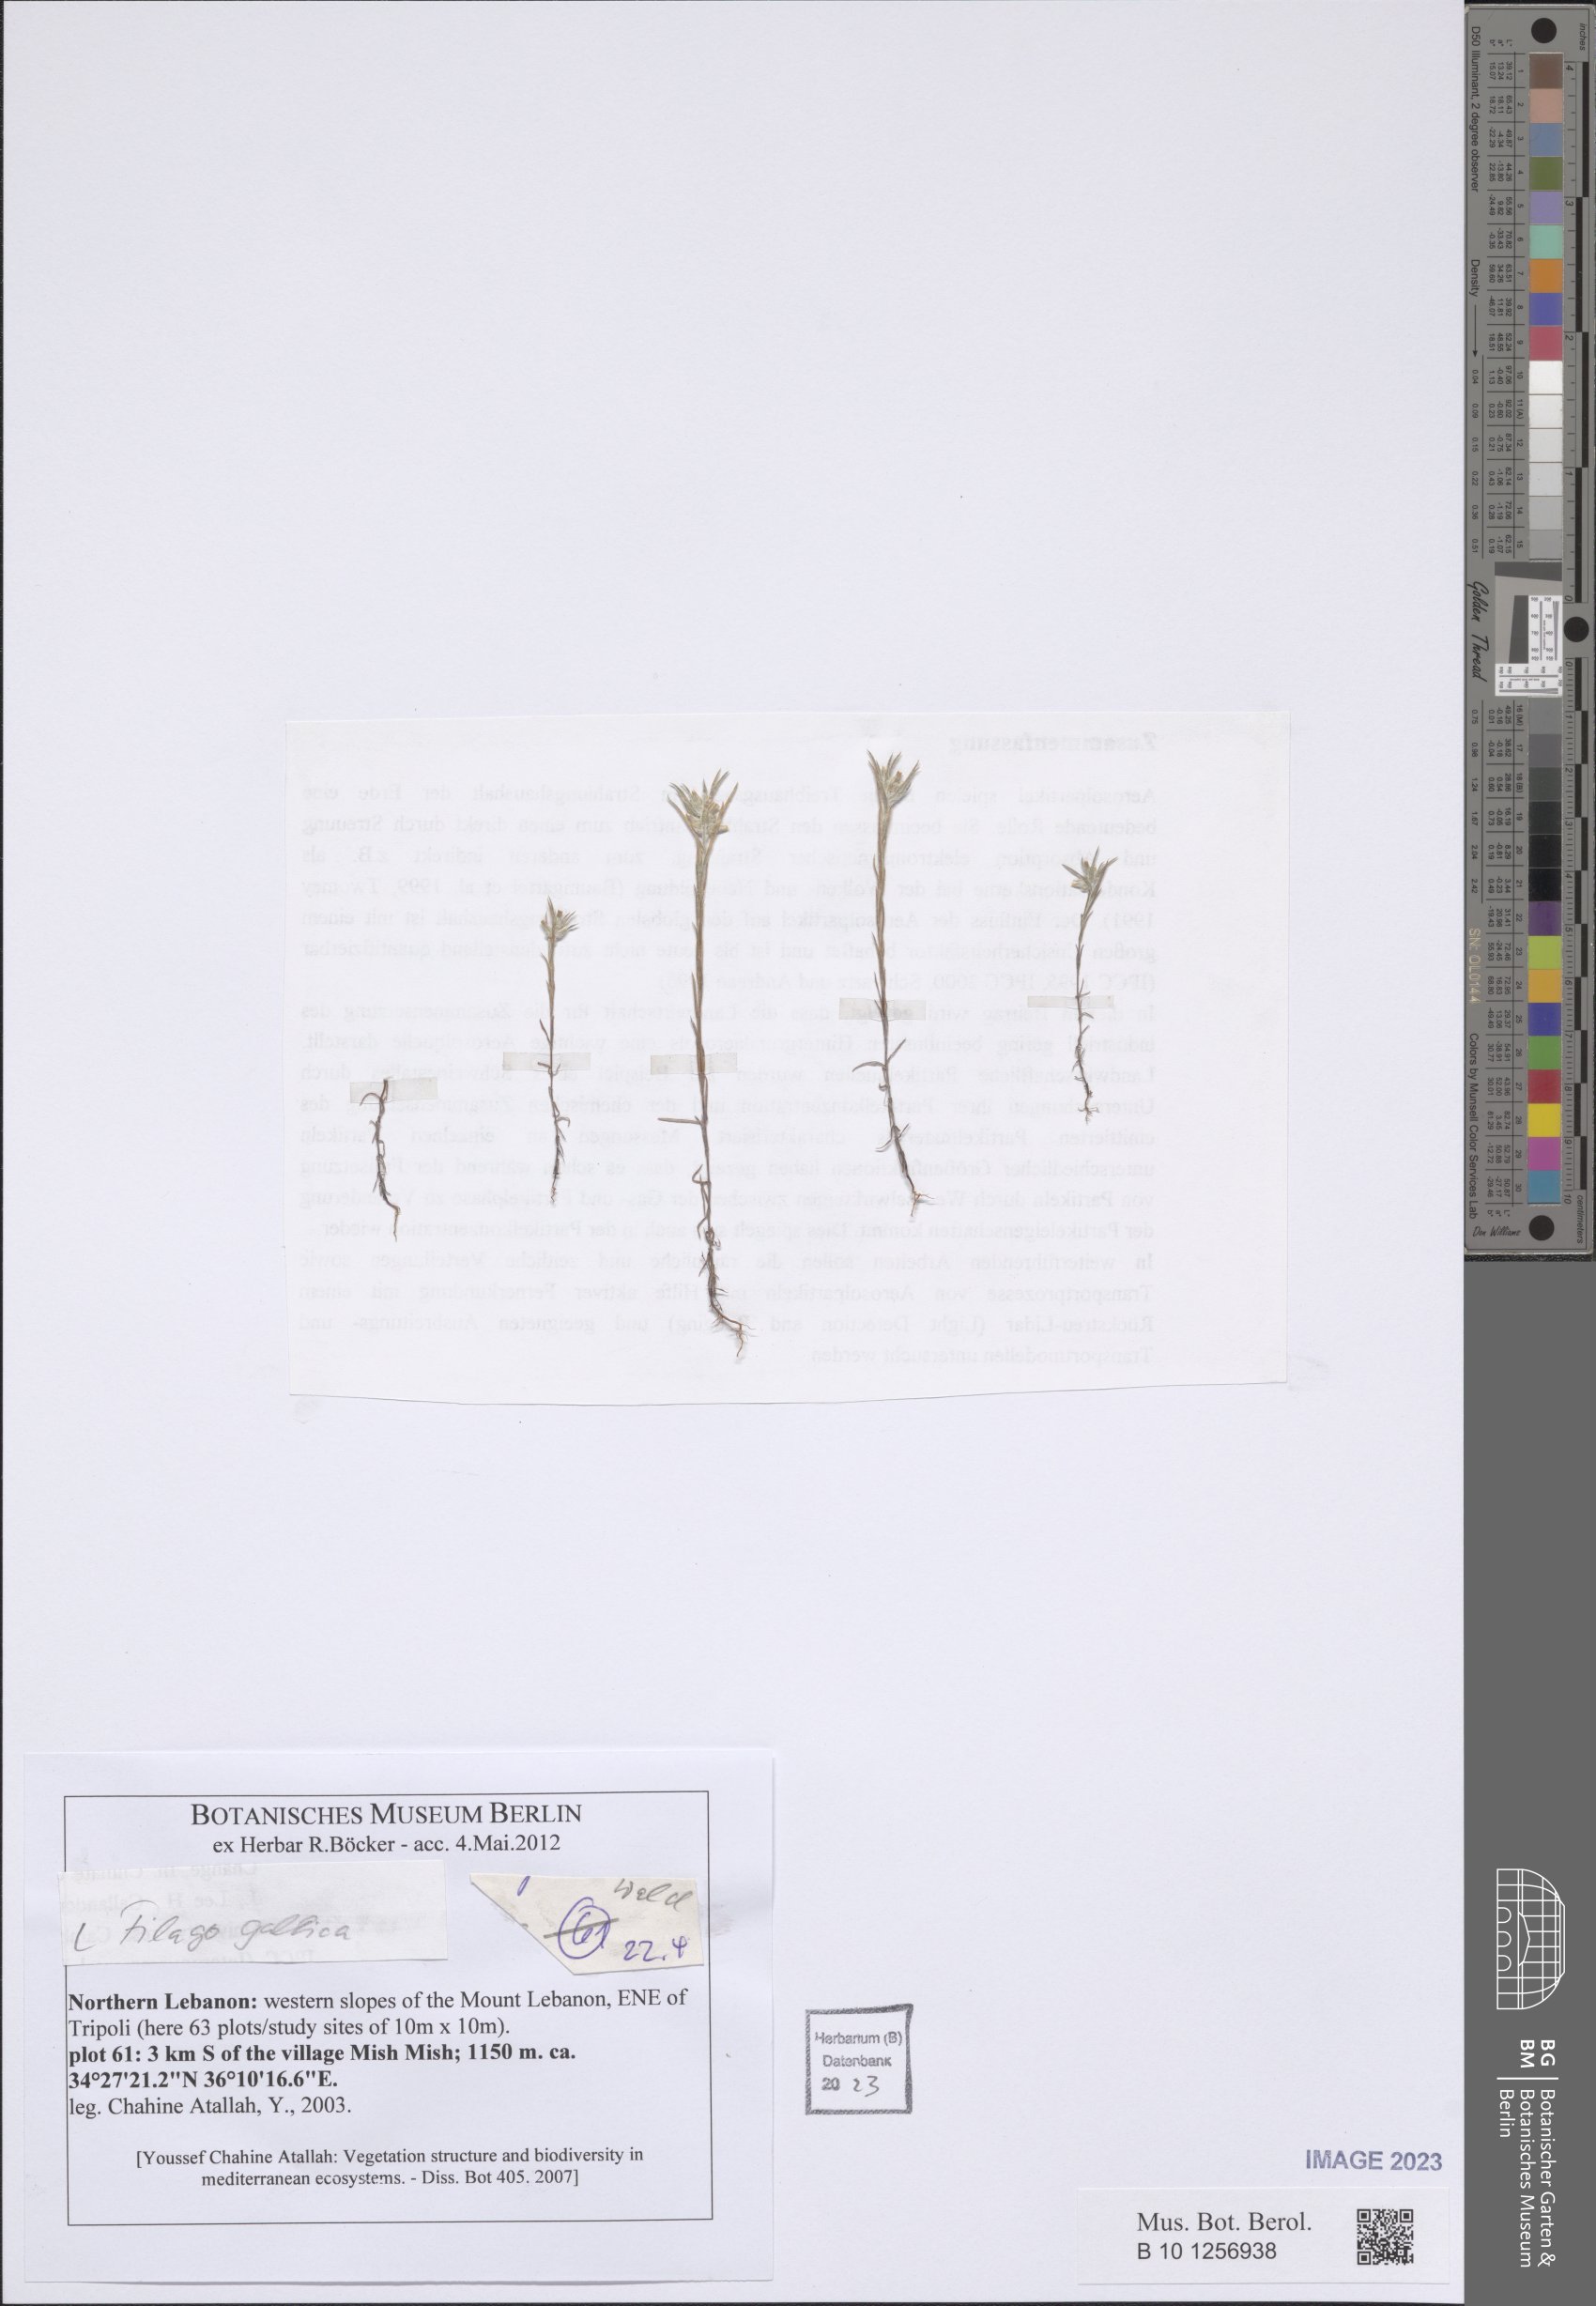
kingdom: Plantae
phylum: Tracheophyta
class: Magnoliopsida
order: Asterales
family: Asteraceae
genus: Logfia
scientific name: Logfia gallica
